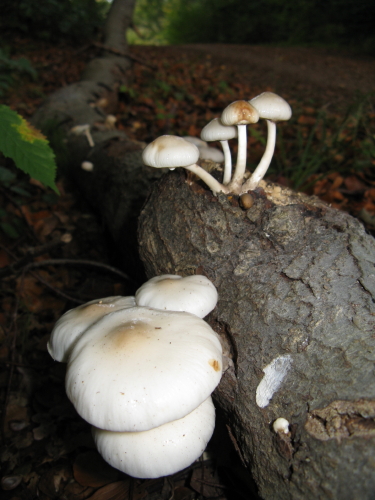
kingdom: Fungi
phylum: Basidiomycota
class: Agaricomycetes
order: Agaricales
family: Physalacriaceae
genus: Mucidula
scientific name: Mucidula mucida
